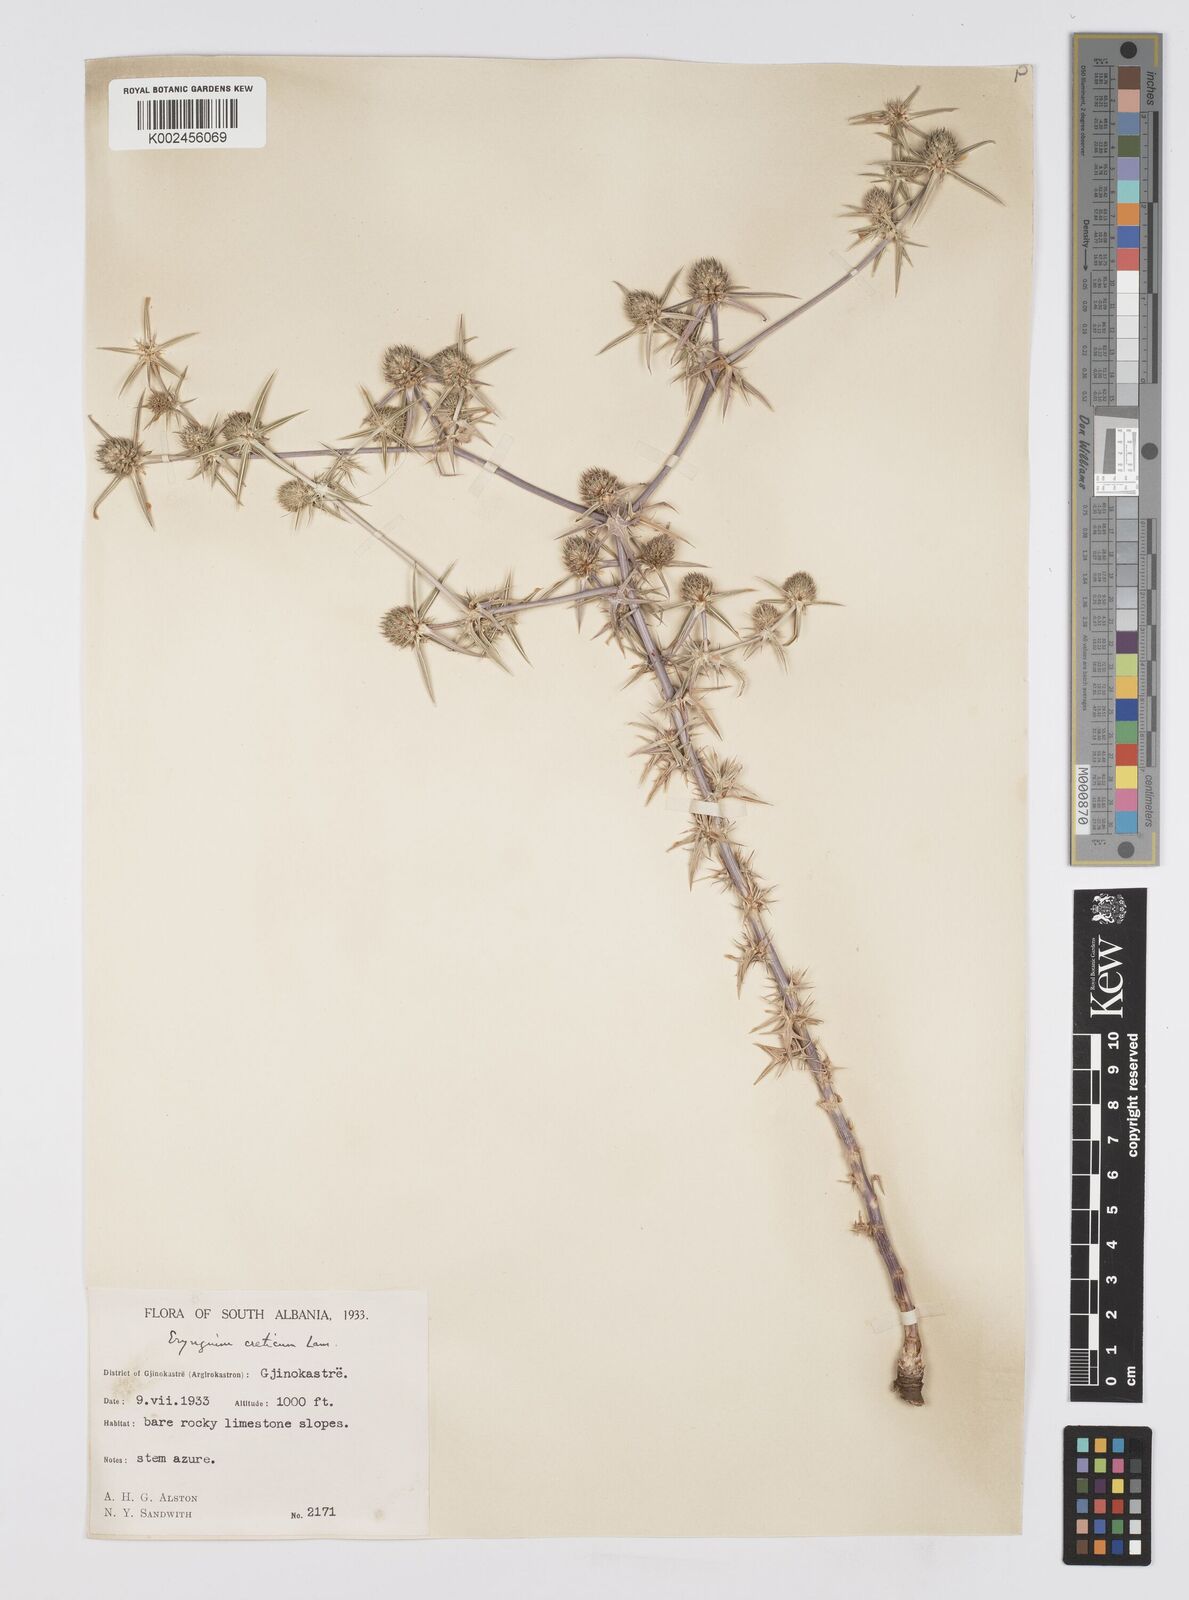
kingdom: Plantae
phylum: Tracheophyta
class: Magnoliopsida
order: Apiales
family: Apiaceae
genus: Eryngium
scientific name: Eryngium creticum
